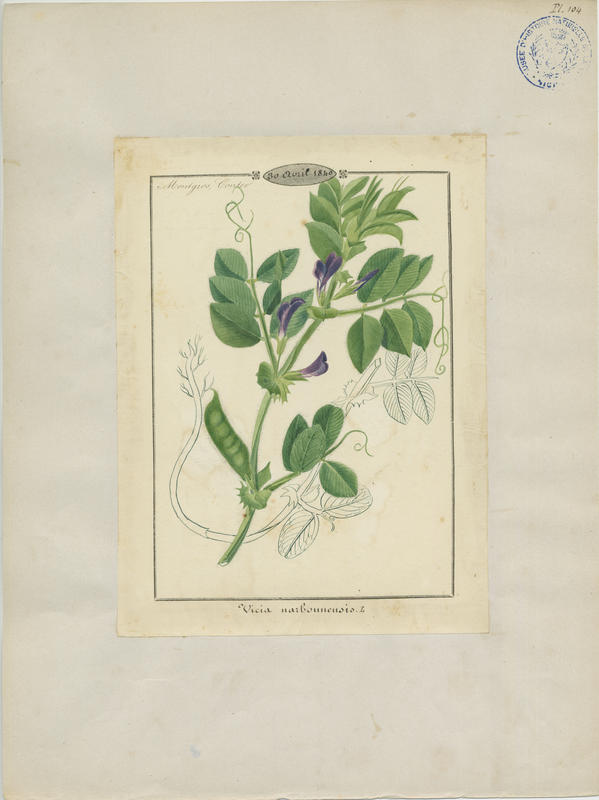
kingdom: Plantae
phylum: Tracheophyta
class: Magnoliopsida
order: Fabales
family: Fabaceae
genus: Vicia
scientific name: Vicia narbonensis
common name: Narbonne vetch
